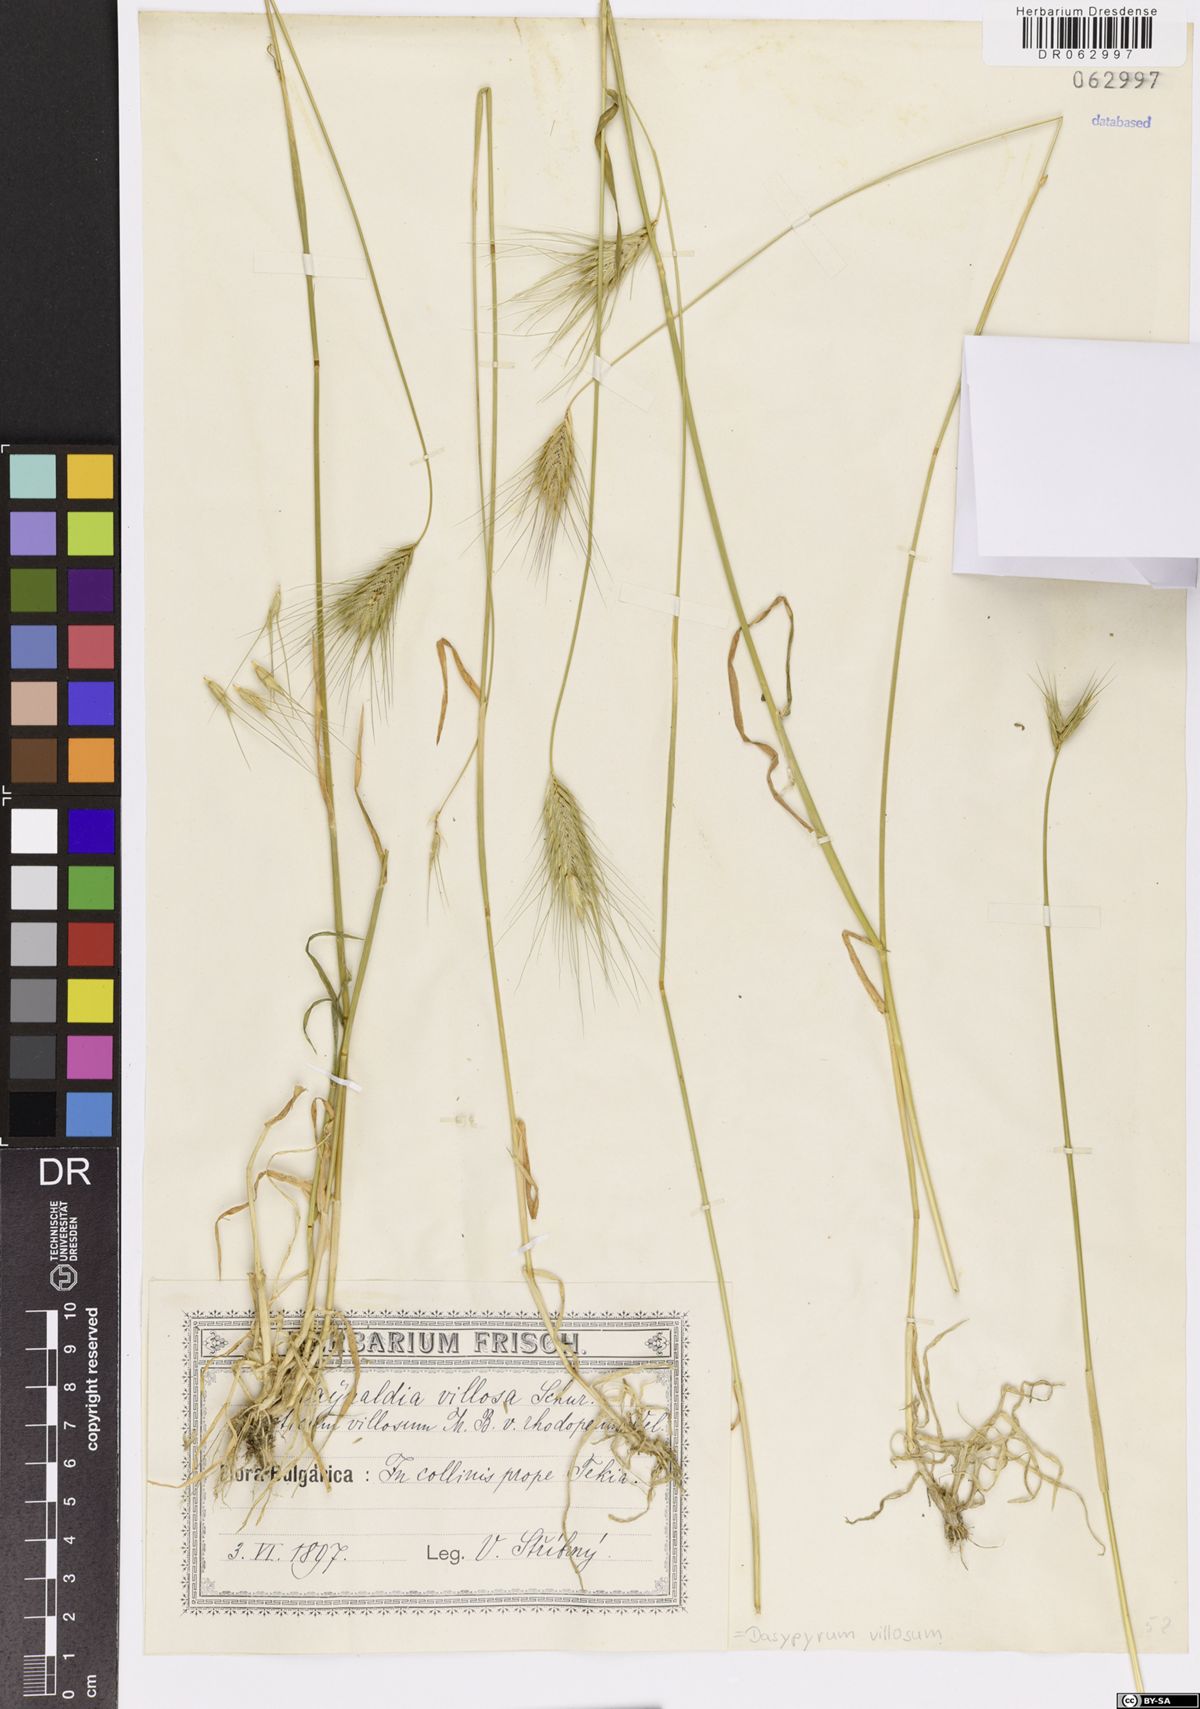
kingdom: Plantae
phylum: Tracheophyta
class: Liliopsida
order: Poales
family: Poaceae
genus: Dasypyrum
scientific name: Dasypyrum villosum
